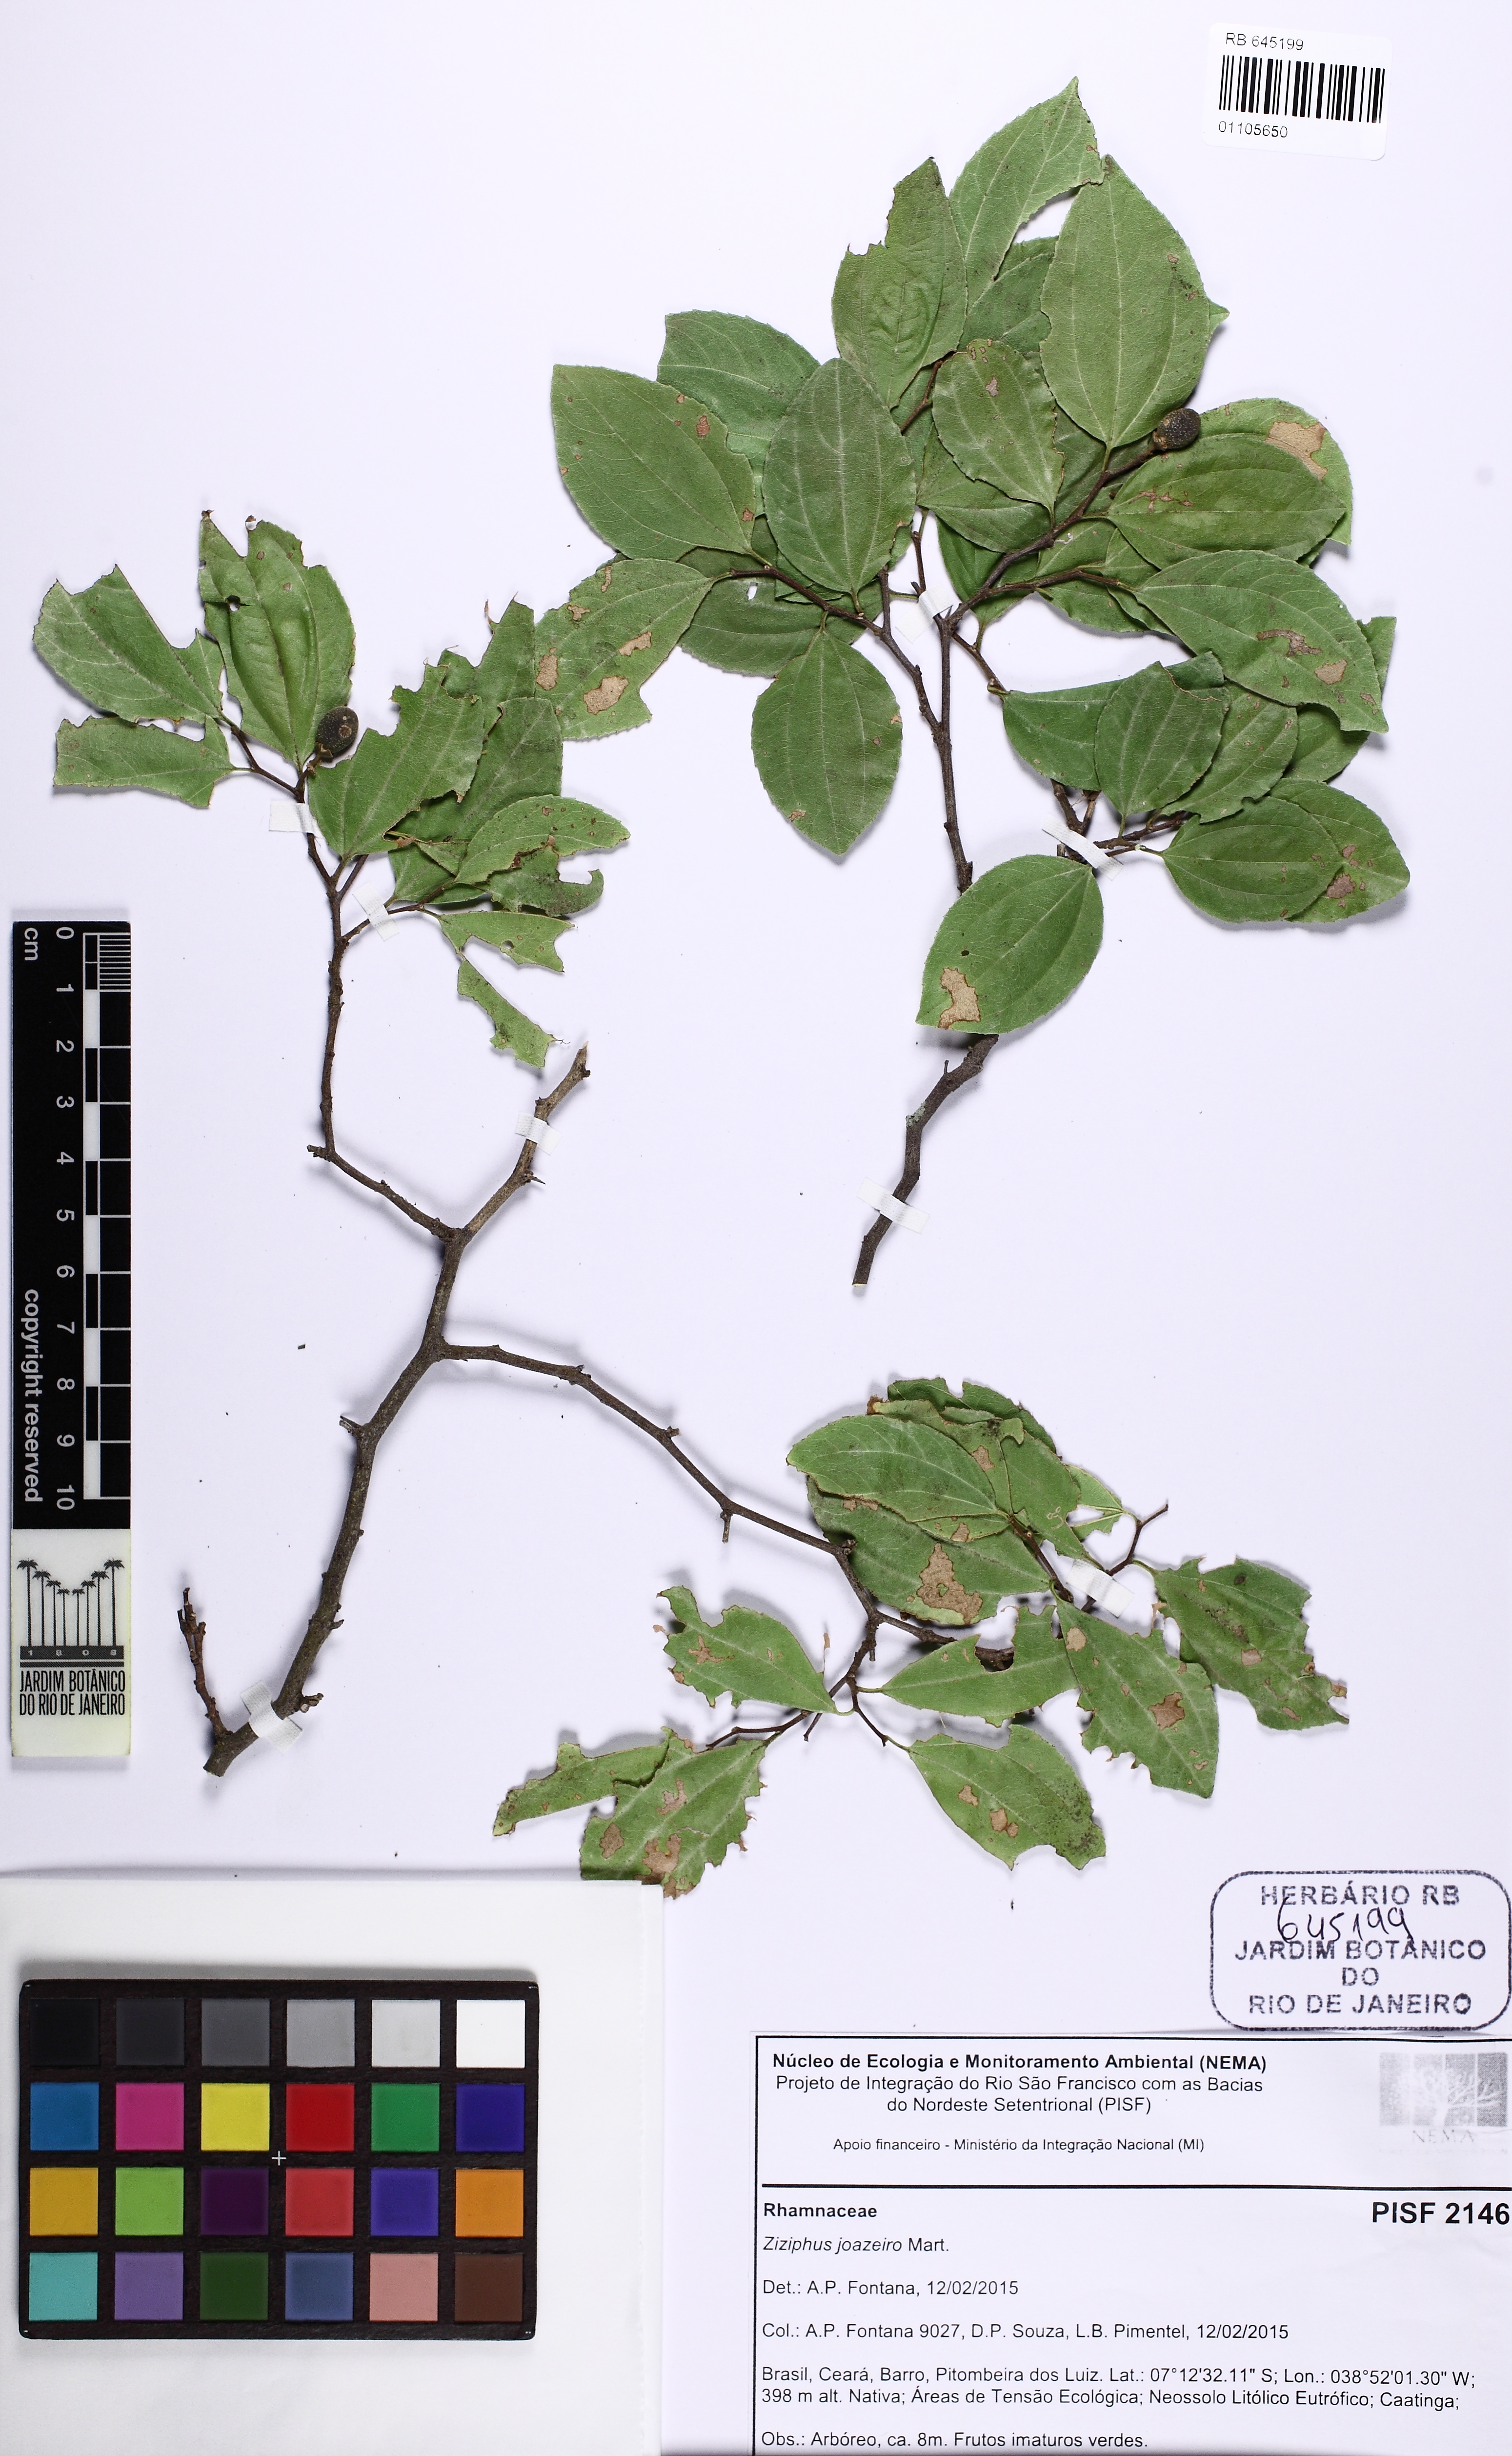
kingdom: Plantae
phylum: Tracheophyta
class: Magnoliopsida
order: Rosales
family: Rhamnaceae
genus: Sarcomphalus
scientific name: Sarcomphalus joazeiro
